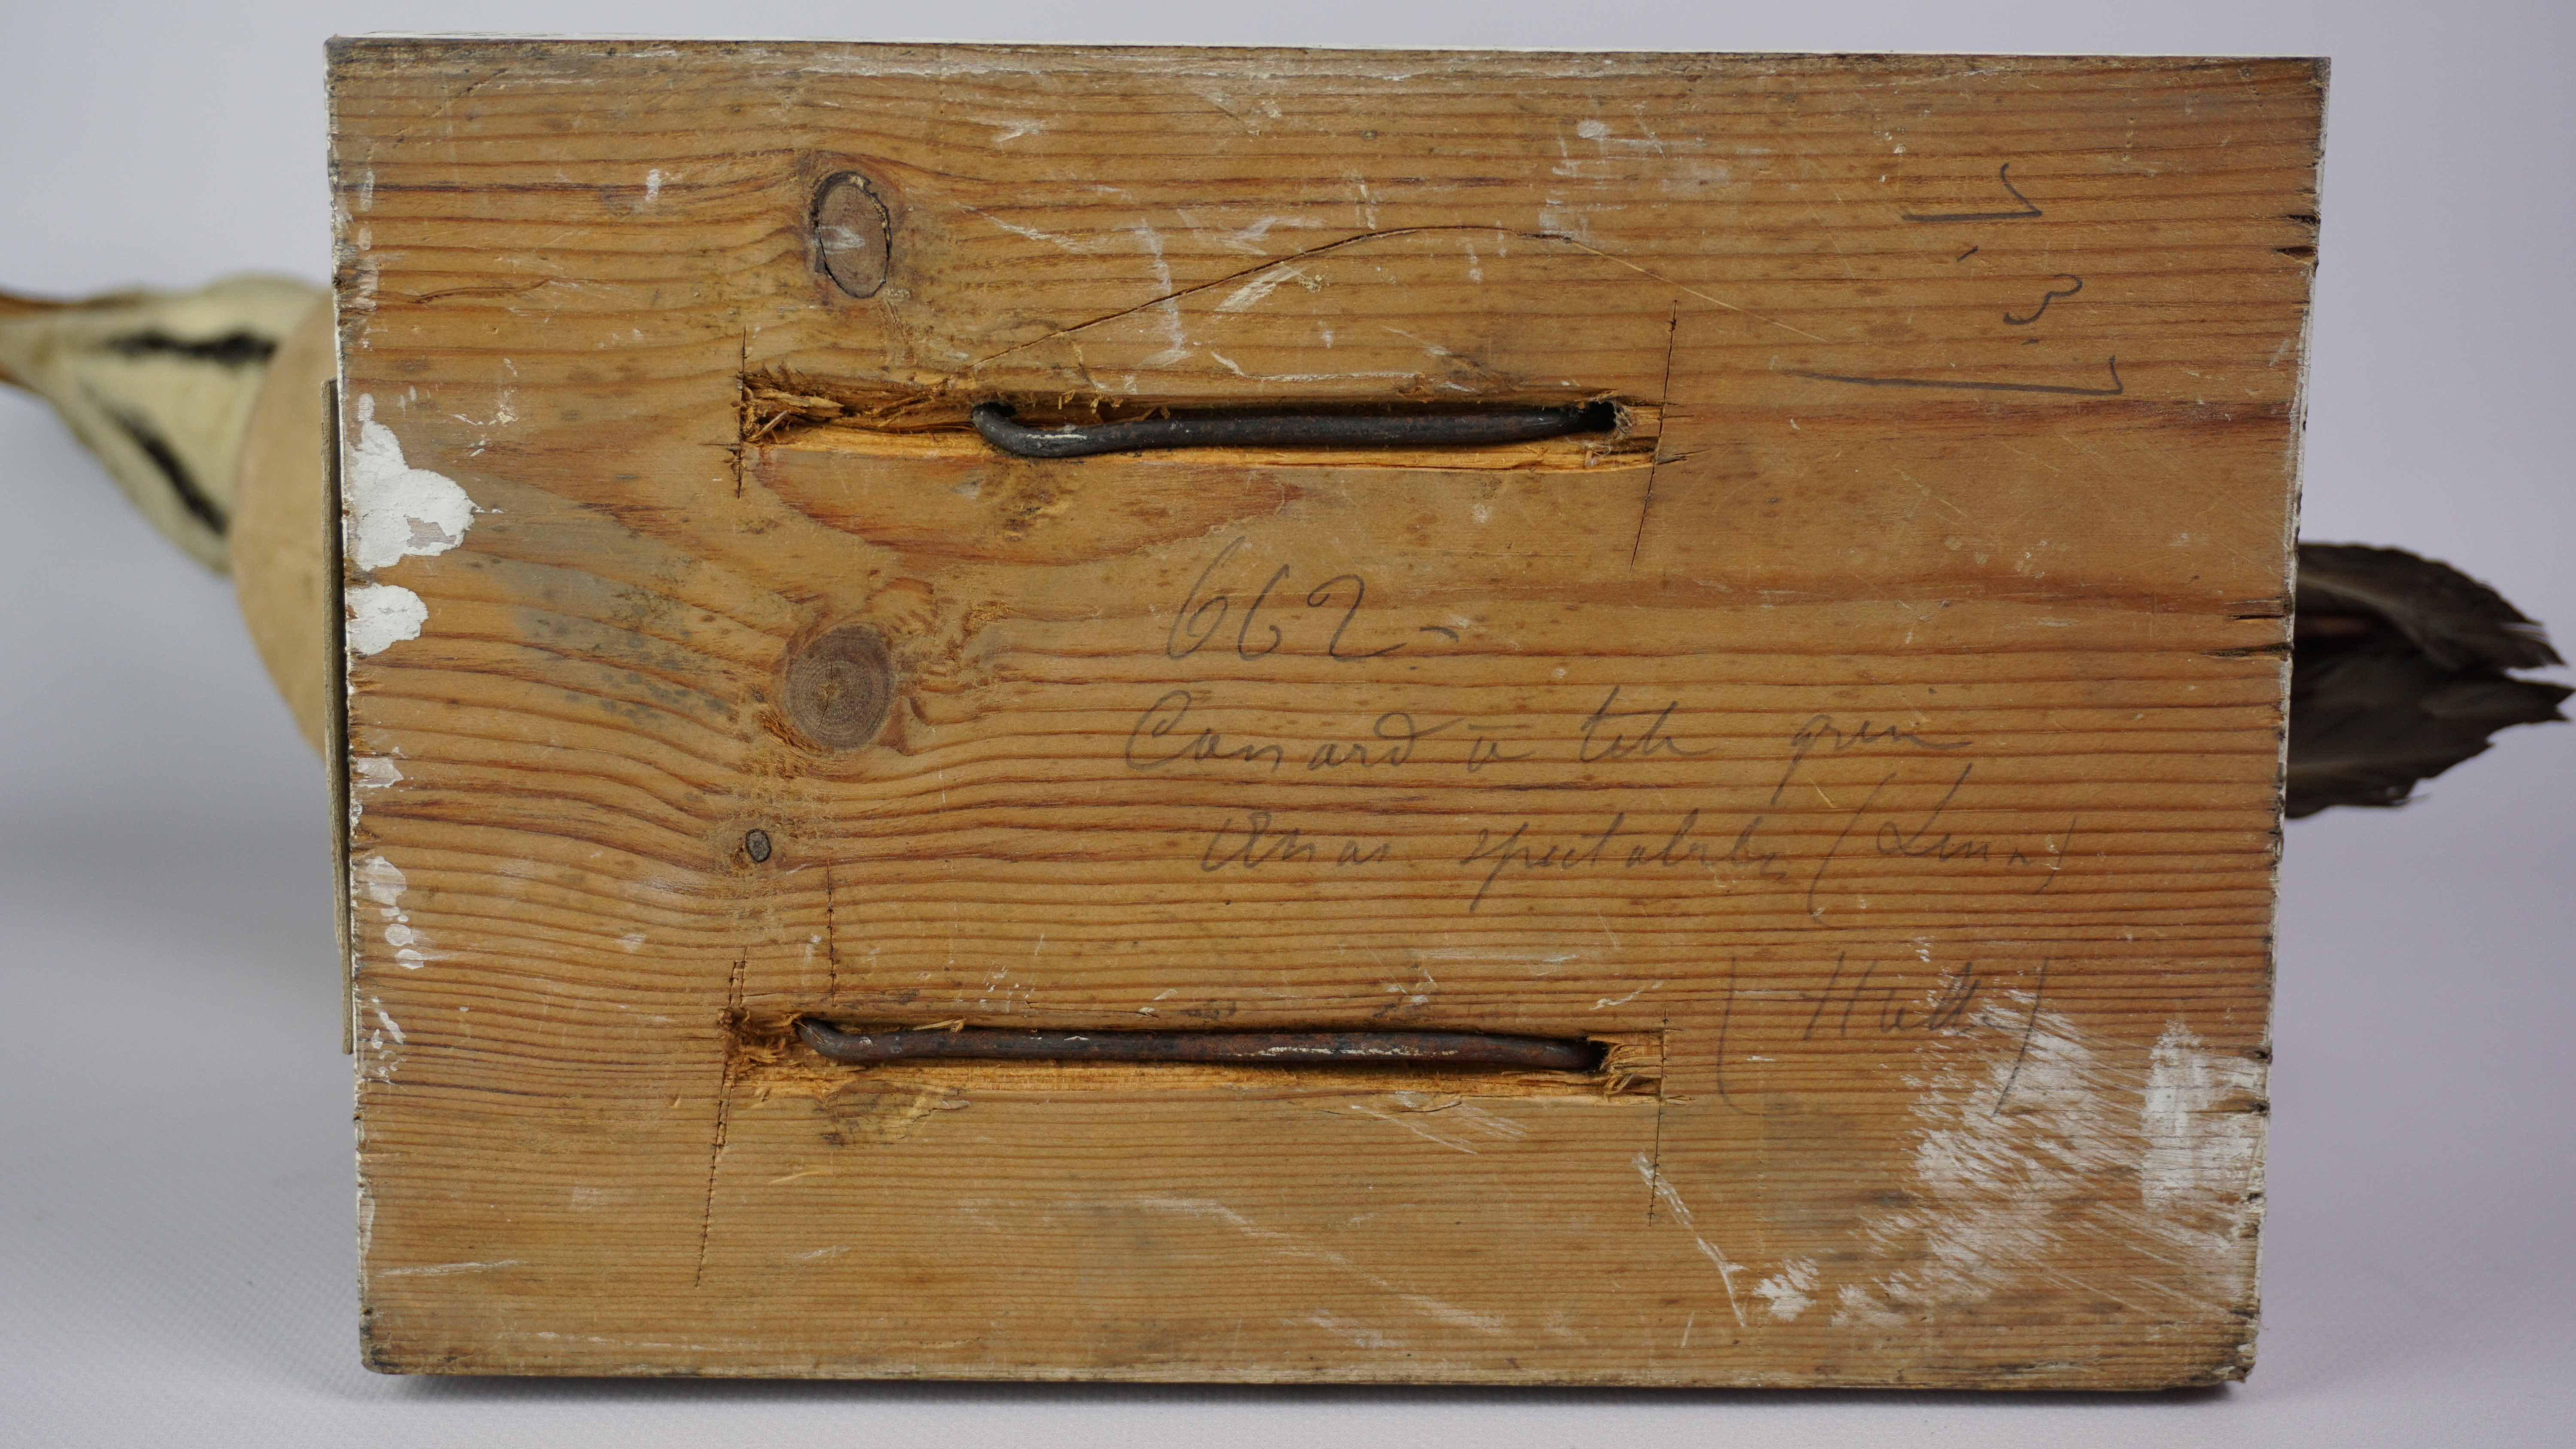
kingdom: Animalia
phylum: Chordata
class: Aves
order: Anseriformes
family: Anatidae
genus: Somateria
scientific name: Somateria spectabilis
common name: King eider
